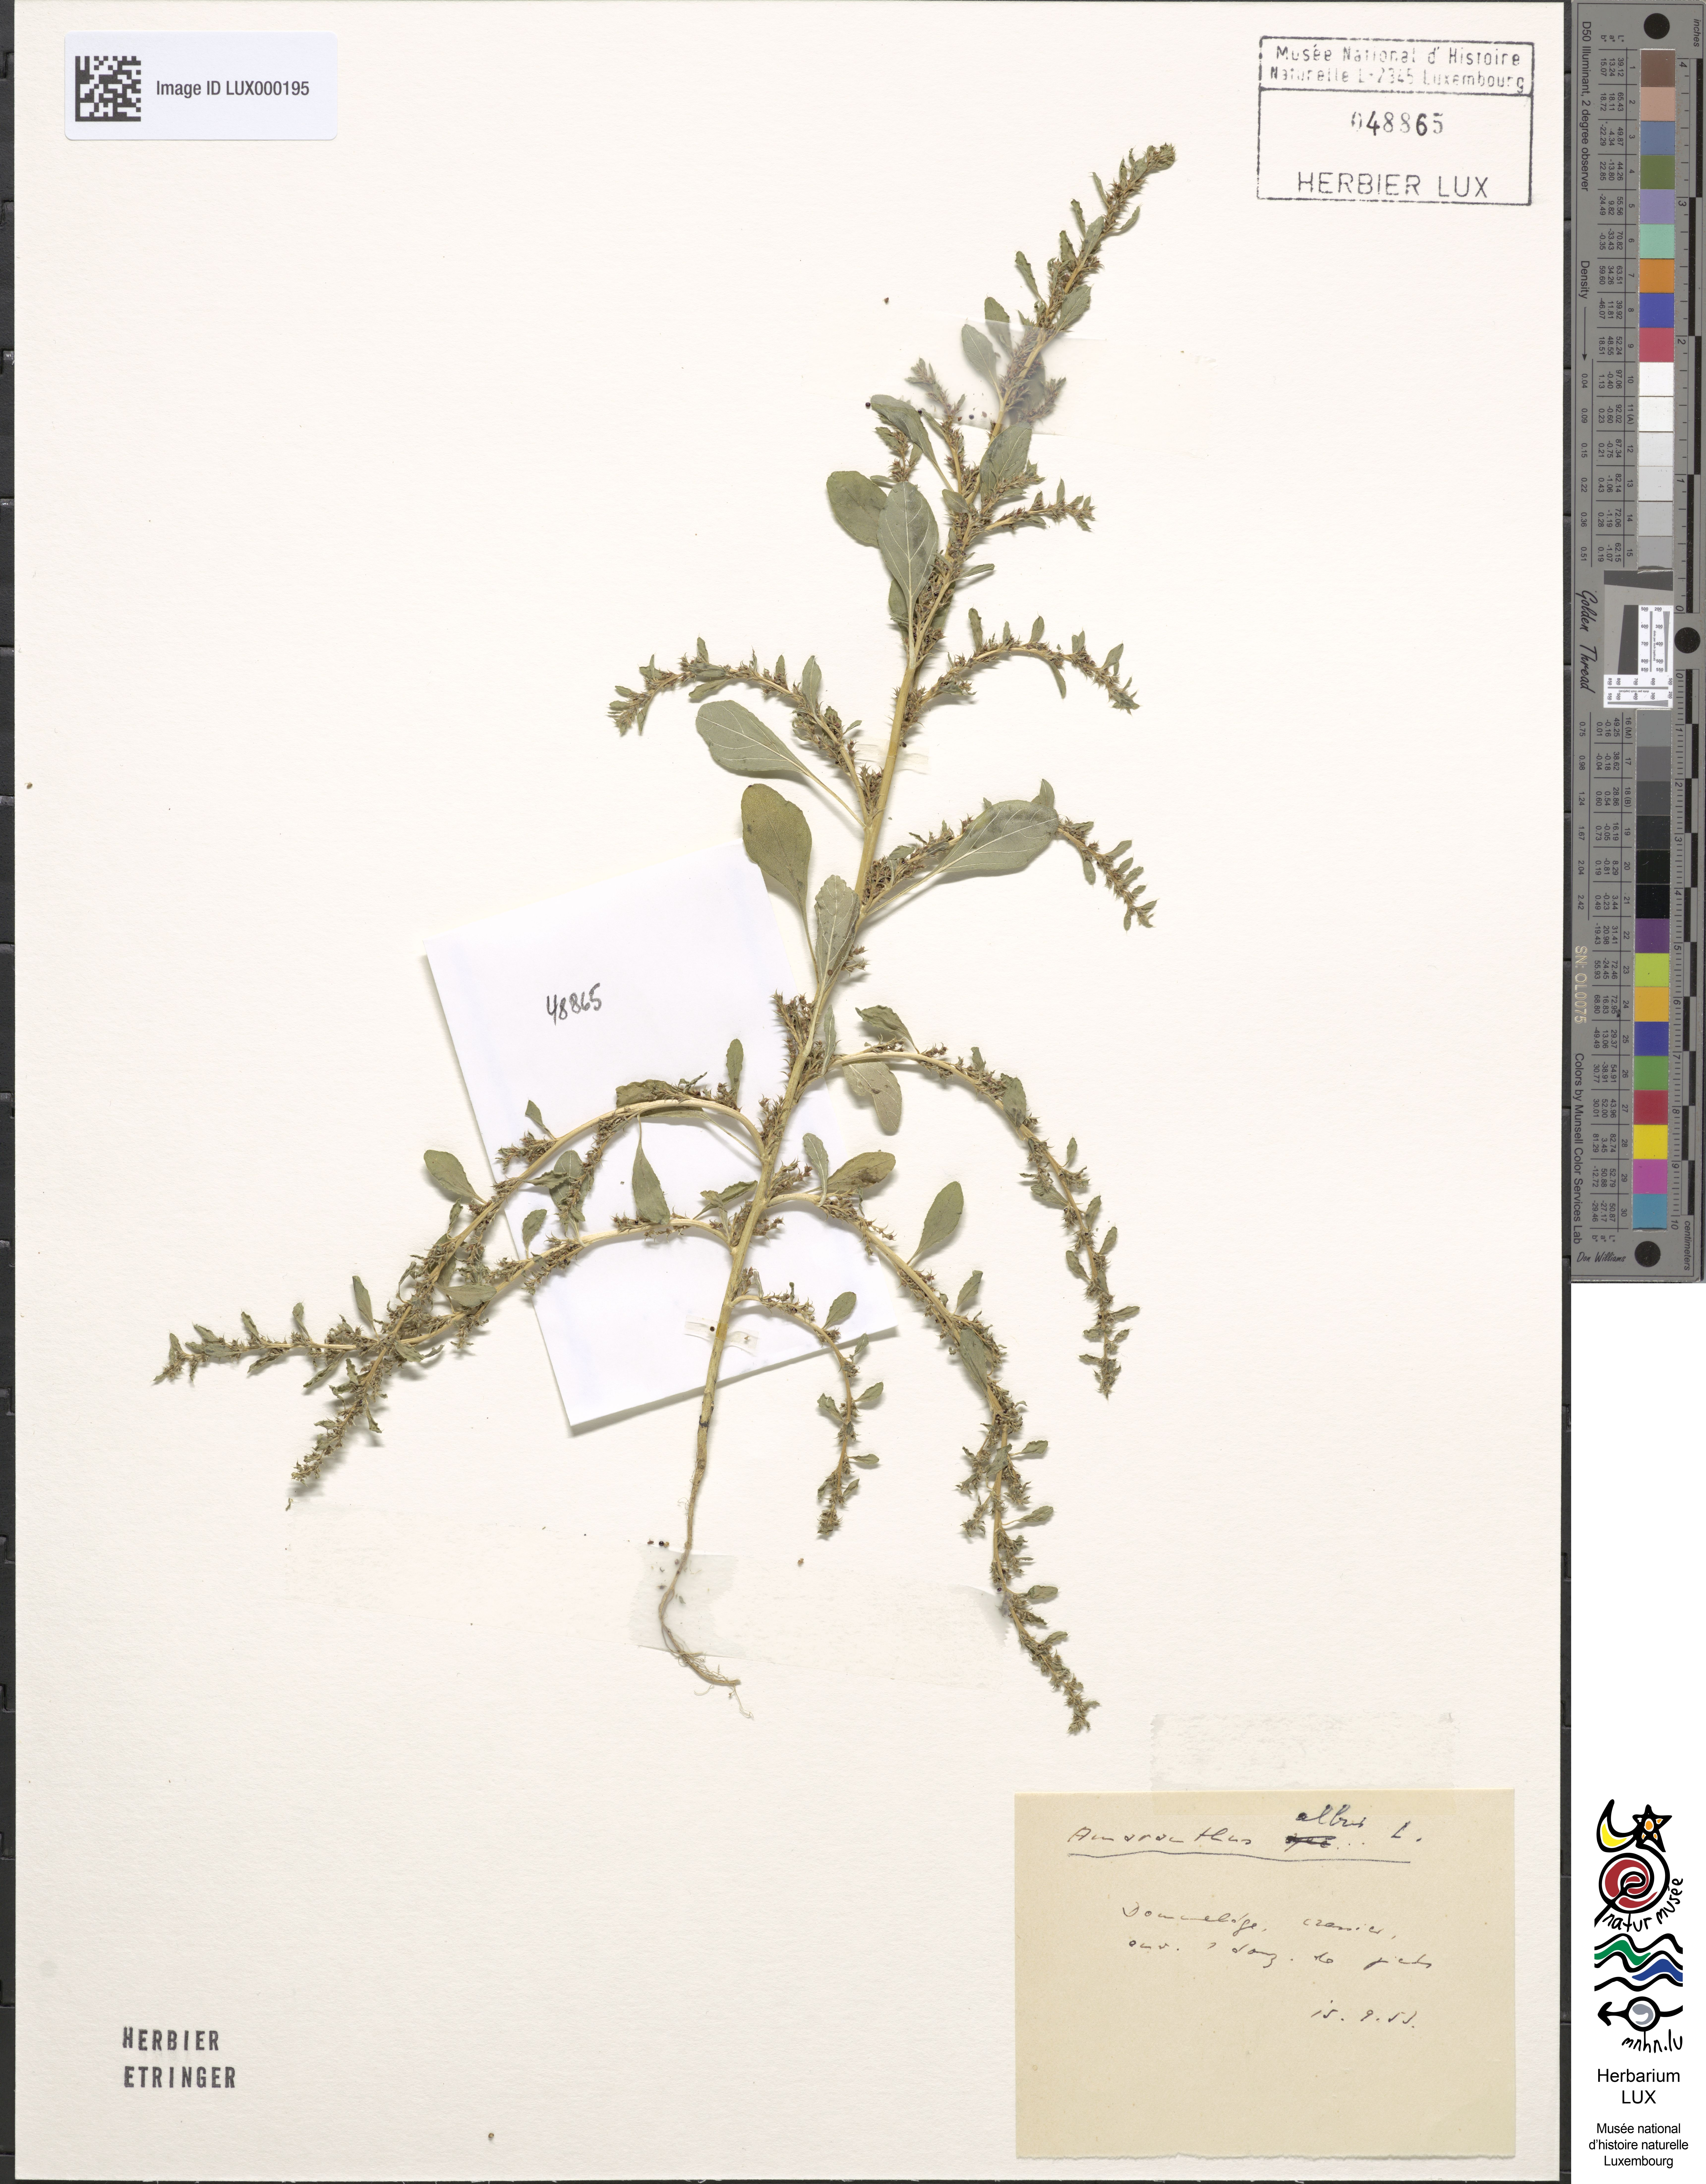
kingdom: Plantae
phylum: Tracheophyta
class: Magnoliopsida
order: Caryophyllales
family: Amaranthaceae
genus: Amaranthus
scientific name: Amaranthus albus
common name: White pigweed
